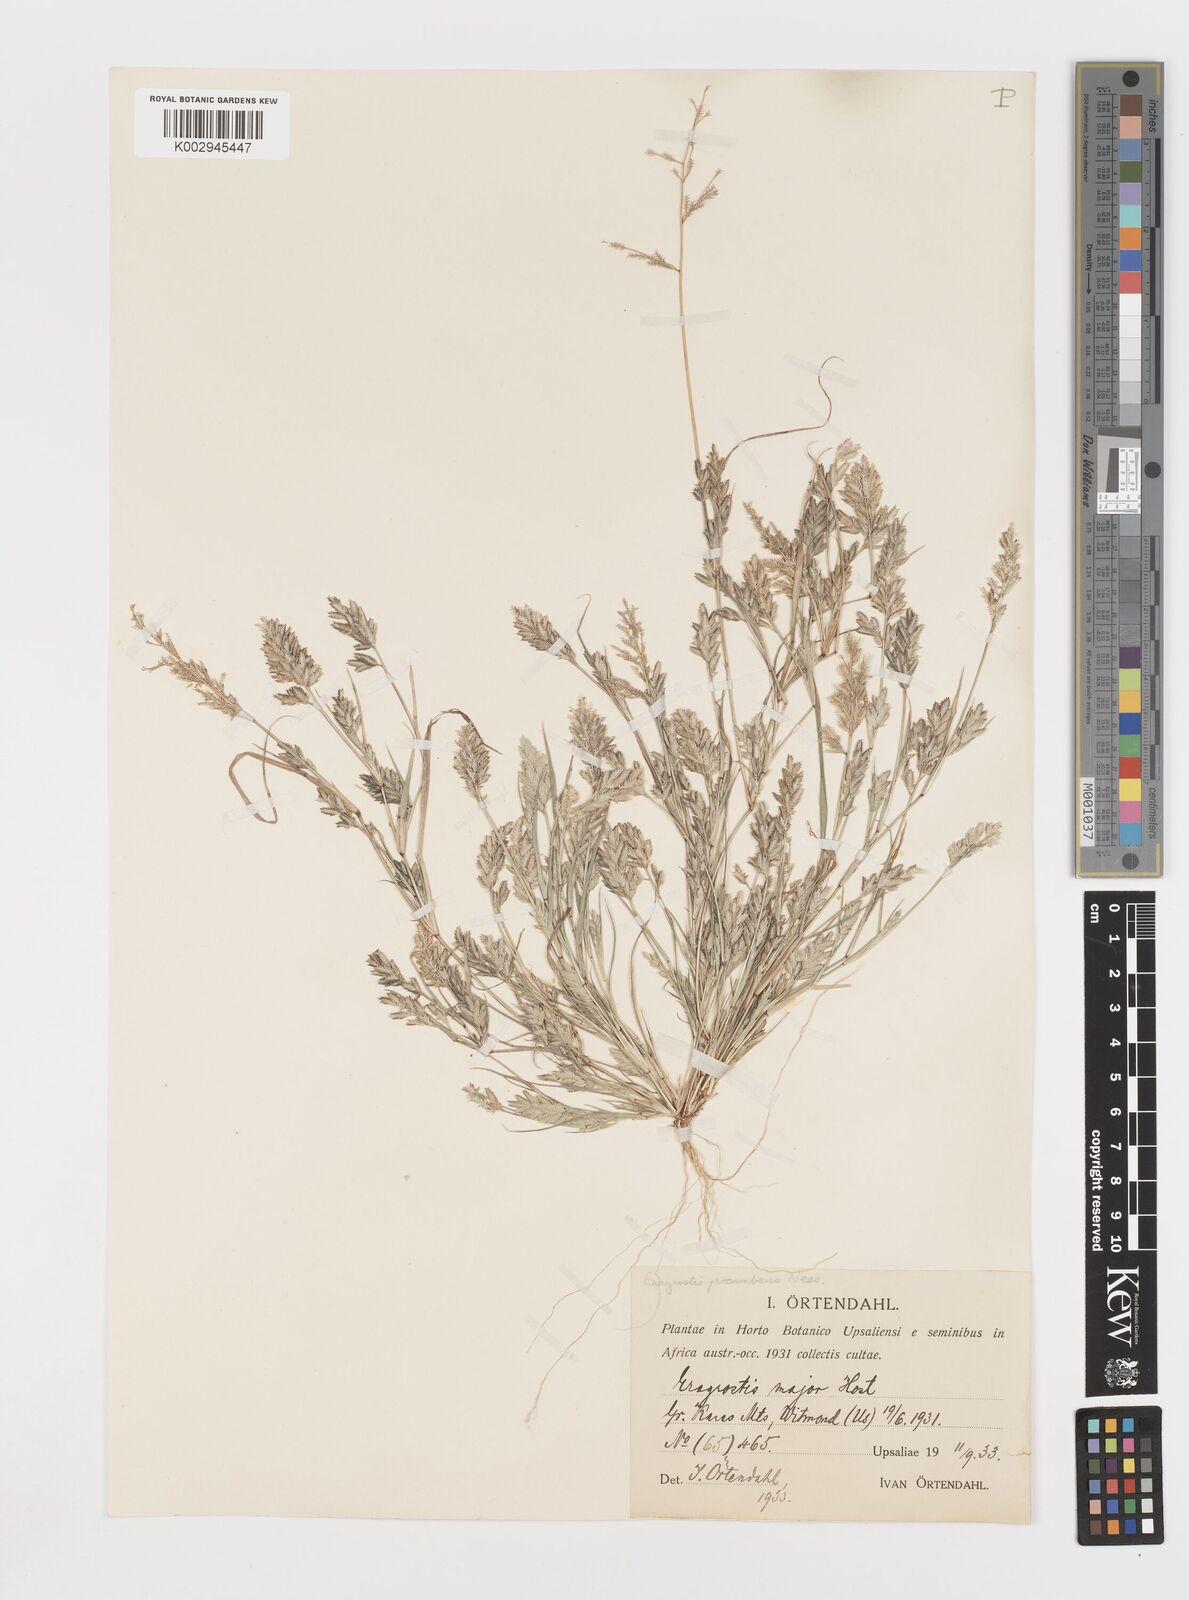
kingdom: Plantae
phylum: Tracheophyta
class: Liliopsida
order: Poales
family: Poaceae
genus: Eragrostis
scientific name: Eragrostis procumbens
